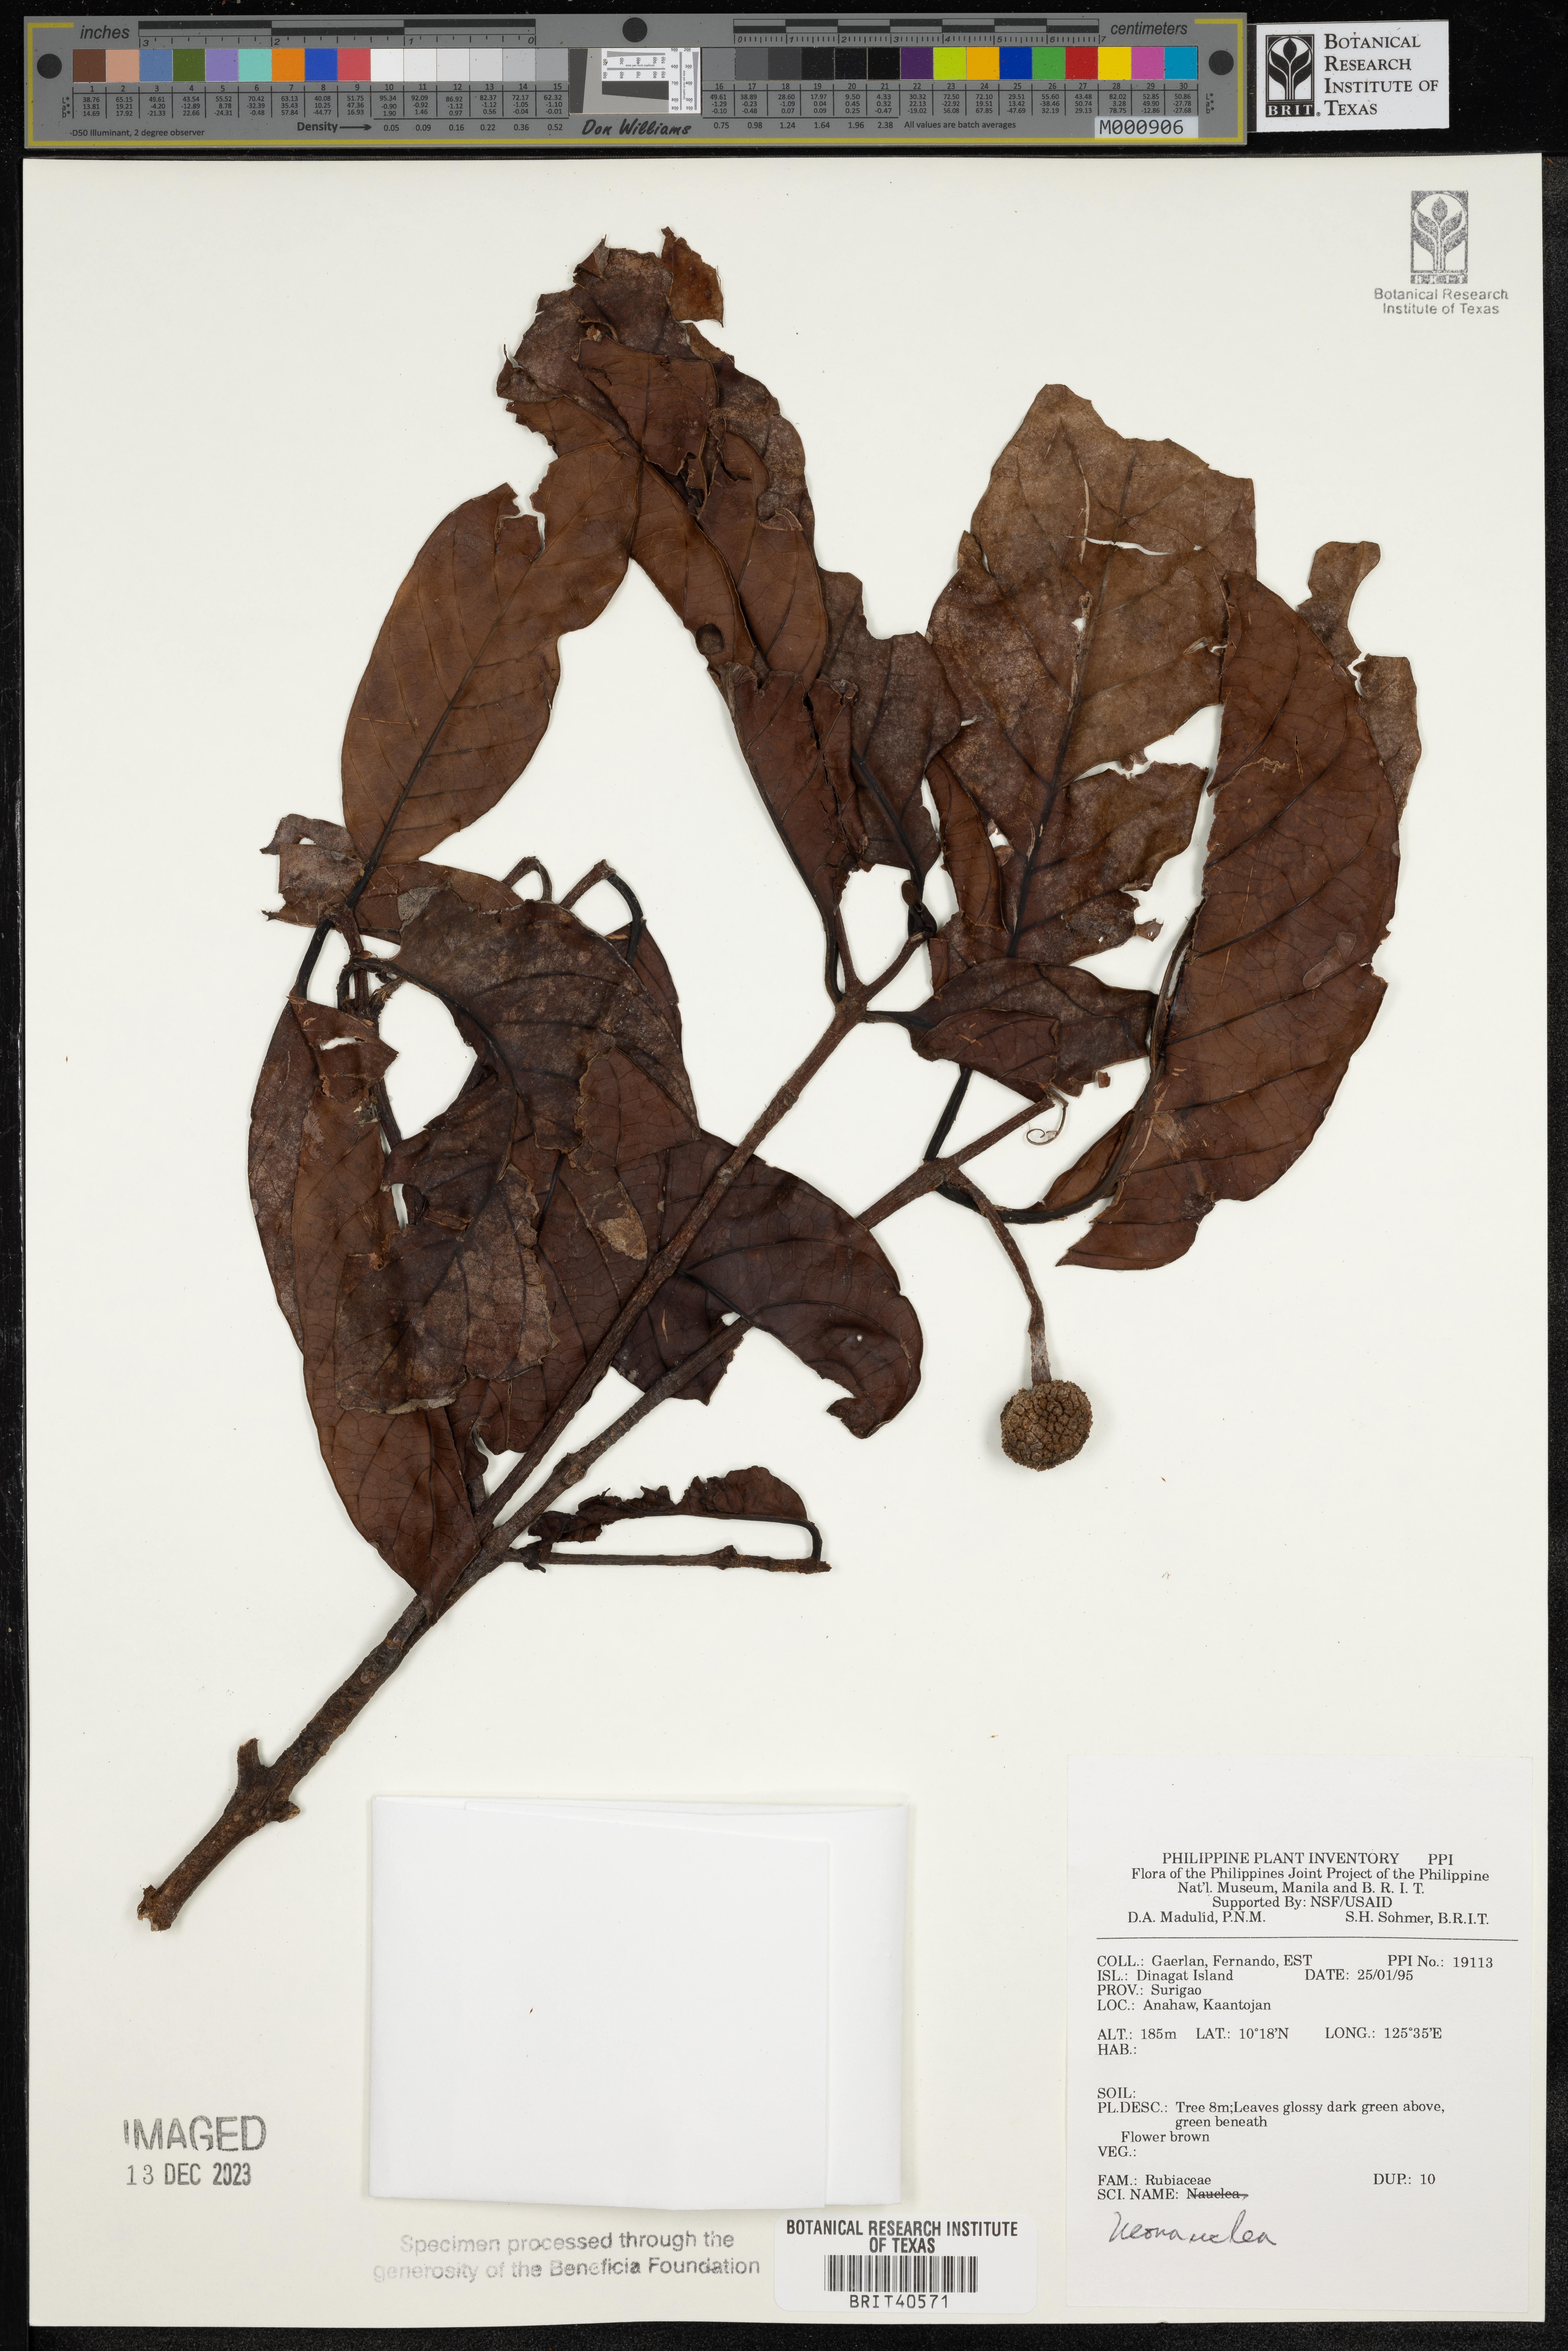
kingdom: Plantae
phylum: Tracheophyta
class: Magnoliopsida
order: Gentianales
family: Rubiaceae
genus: Neonauclea
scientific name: Neonauclea
